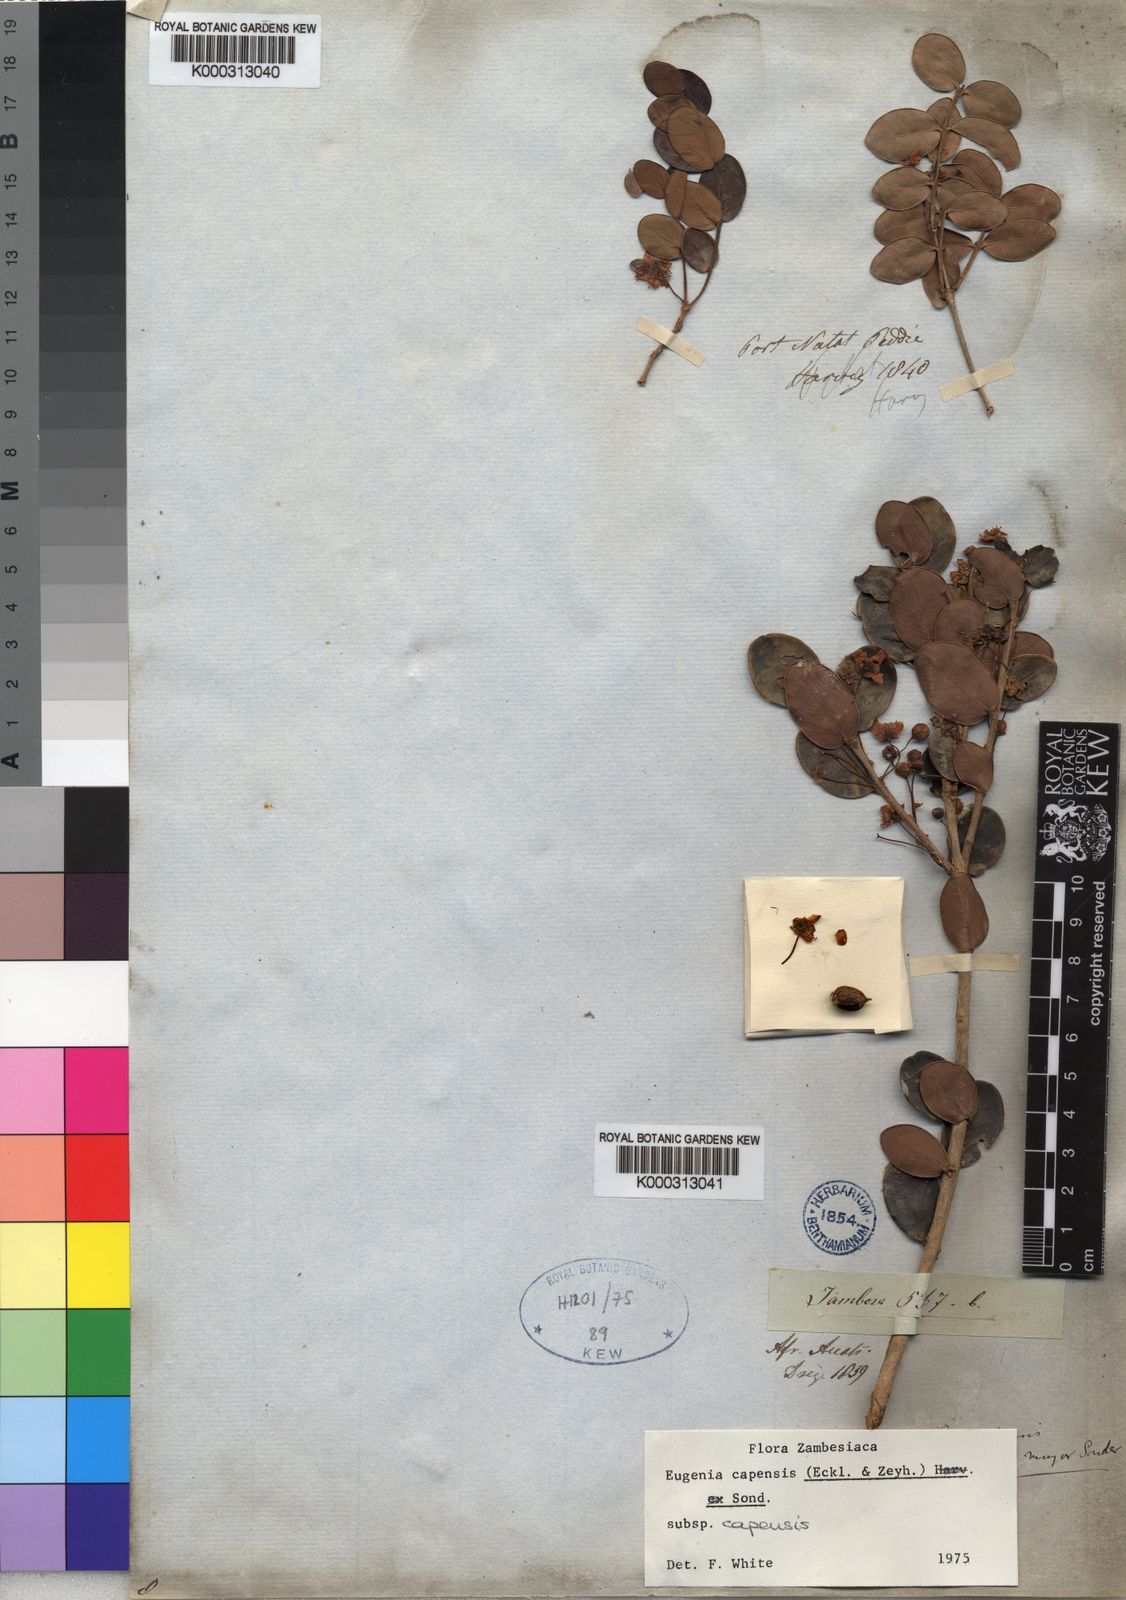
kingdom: Plantae
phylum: Tracheophyta
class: Magnoliopsida
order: Myrtales
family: Myrtaceae
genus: Eugenia
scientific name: Eugenia capensis
